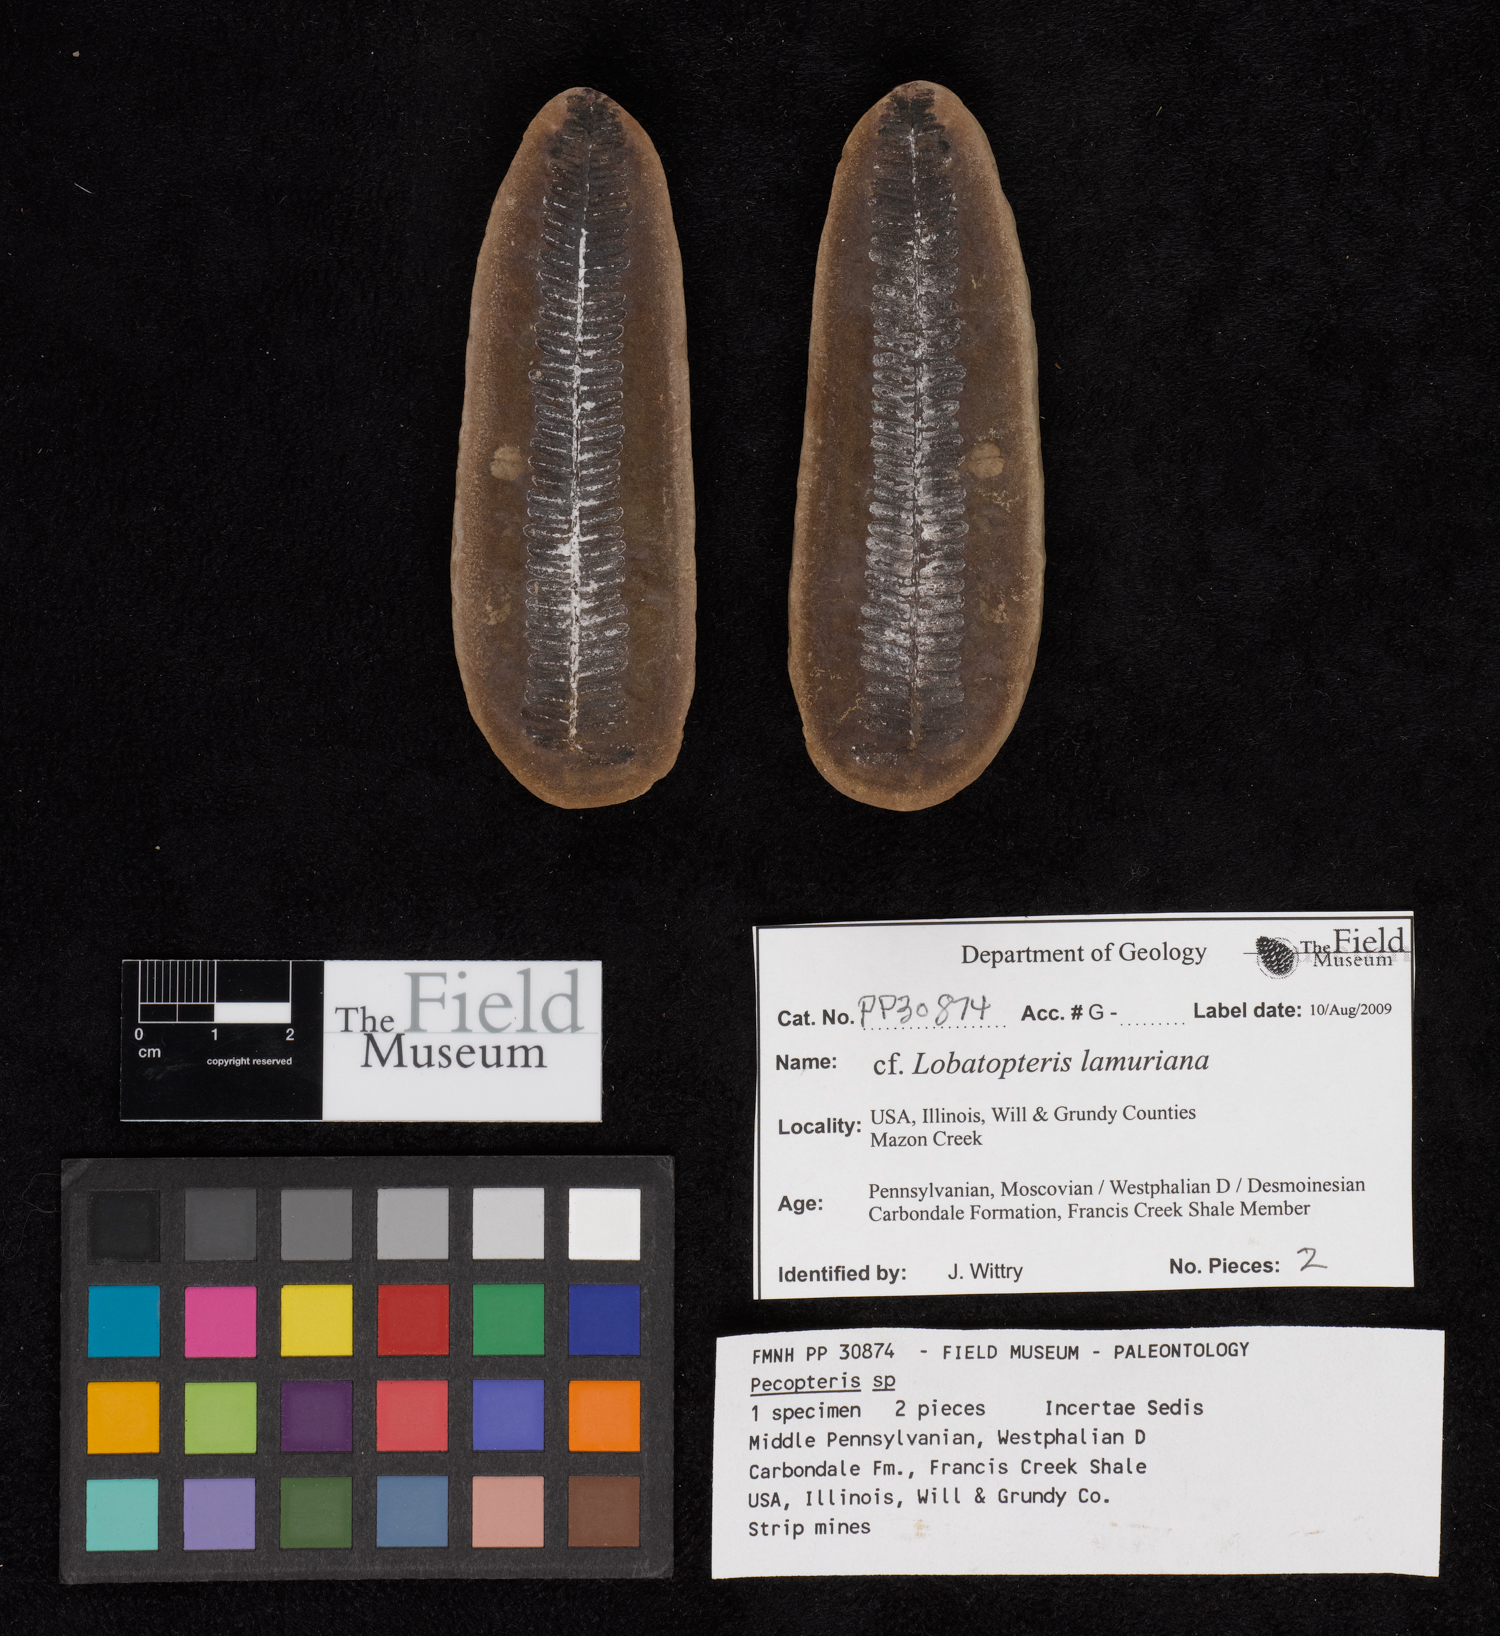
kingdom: Plantae
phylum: Tracheophyta
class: Polypodiopsida
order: Marattiales
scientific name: Marattiales
